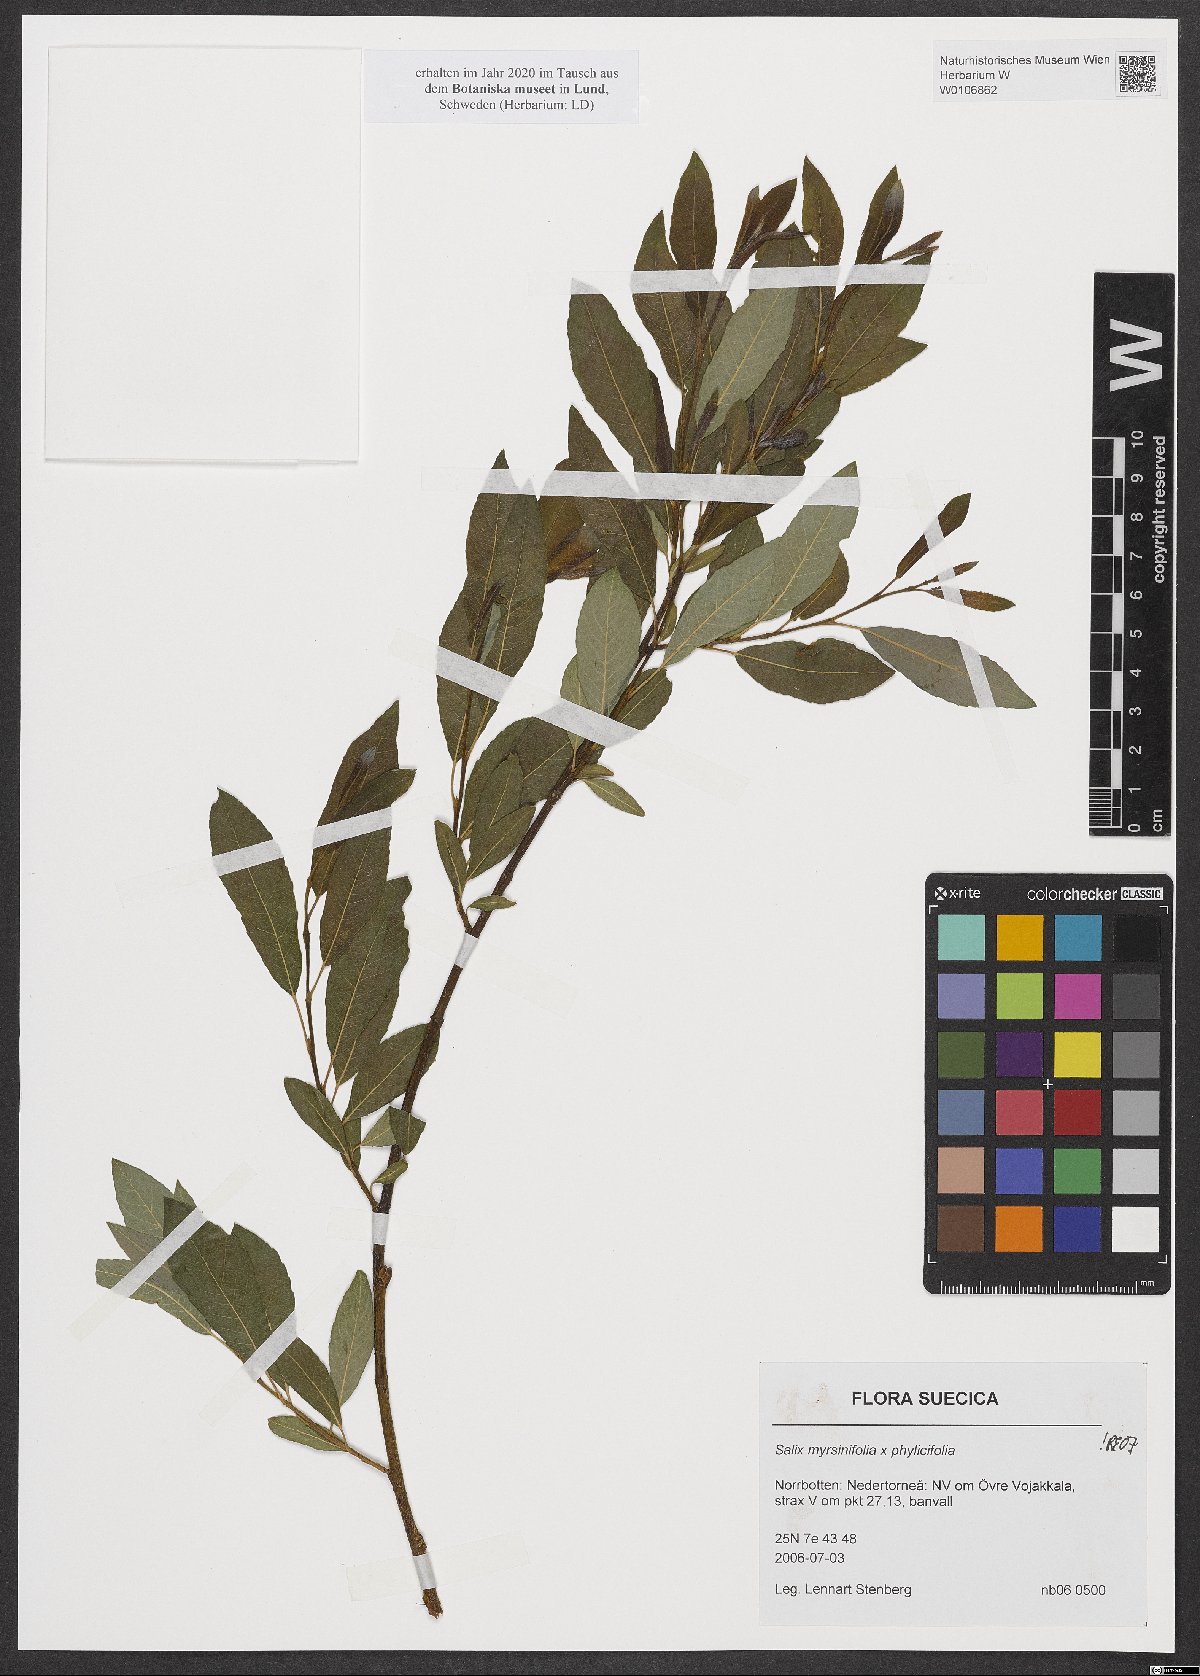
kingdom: Plantae
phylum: Tracheophyta
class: Magnoliopsida
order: Malpighiales
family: Salicaceae
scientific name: Salicaceae
